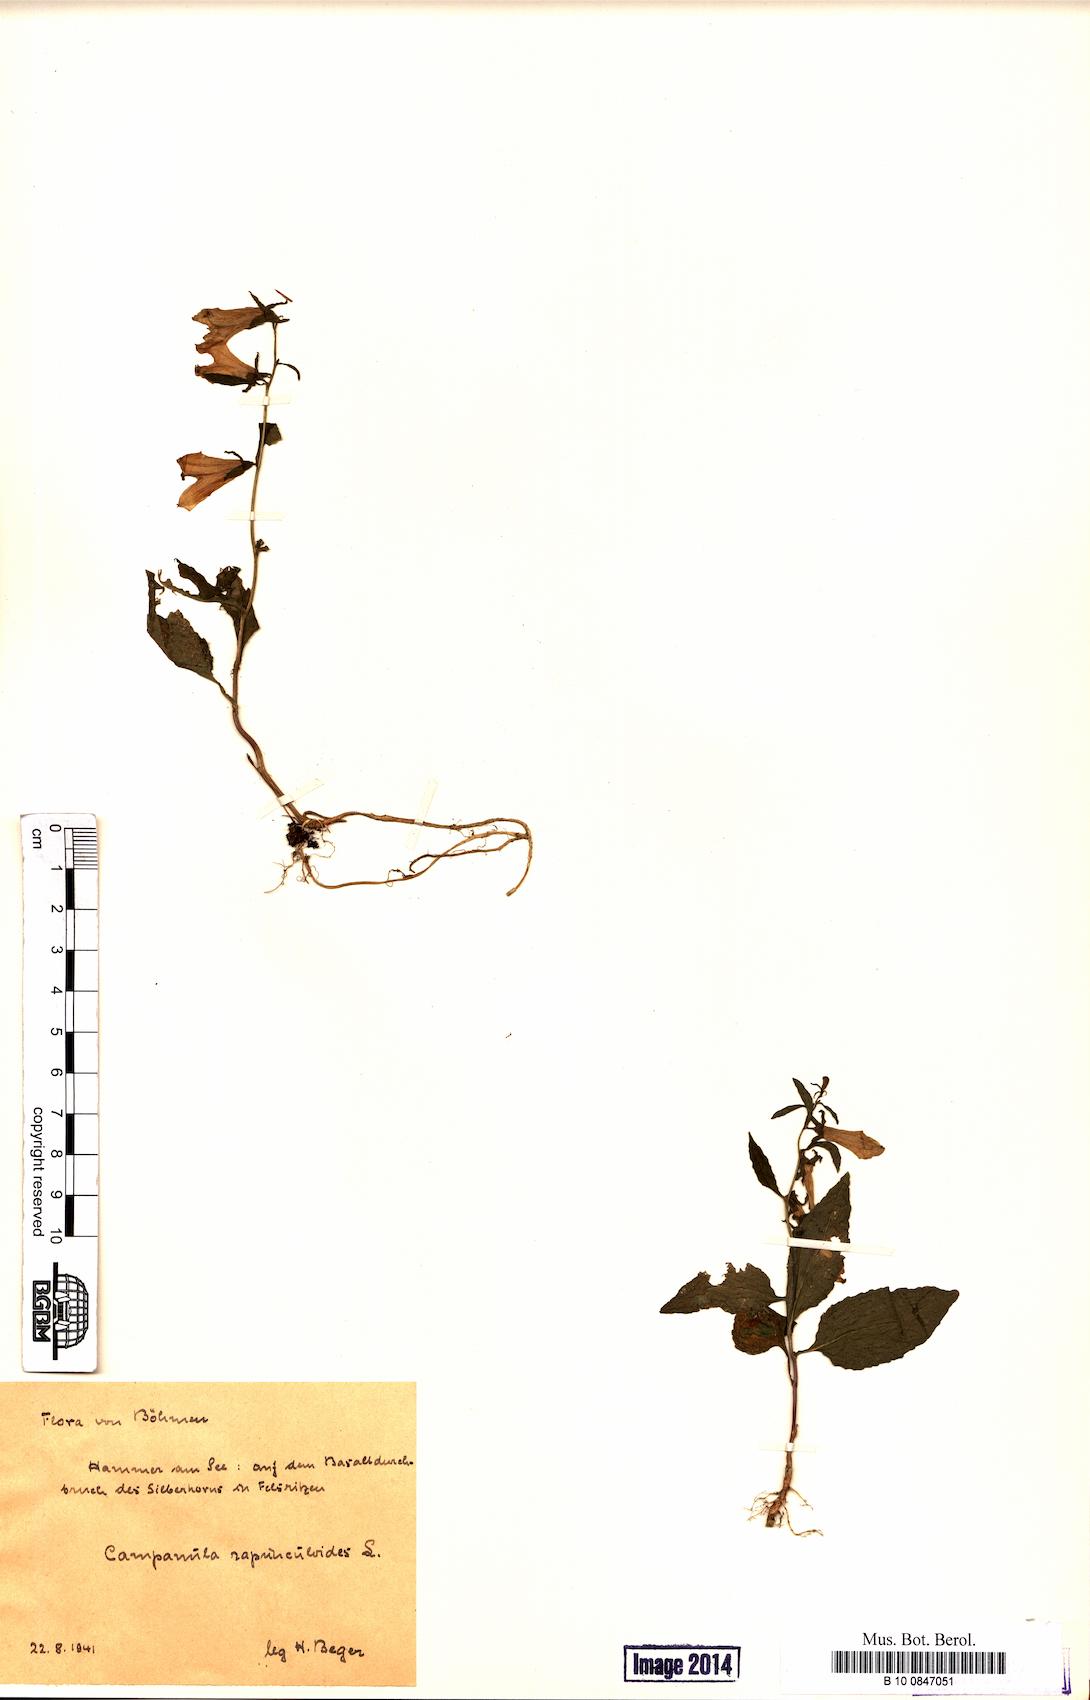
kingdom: Plantae
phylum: Tracheophyta
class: Magnoliopsida
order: Asterales
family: Campanulaceae
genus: Campanula
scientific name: Campanula rapunculoides
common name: Creeping bellflower
